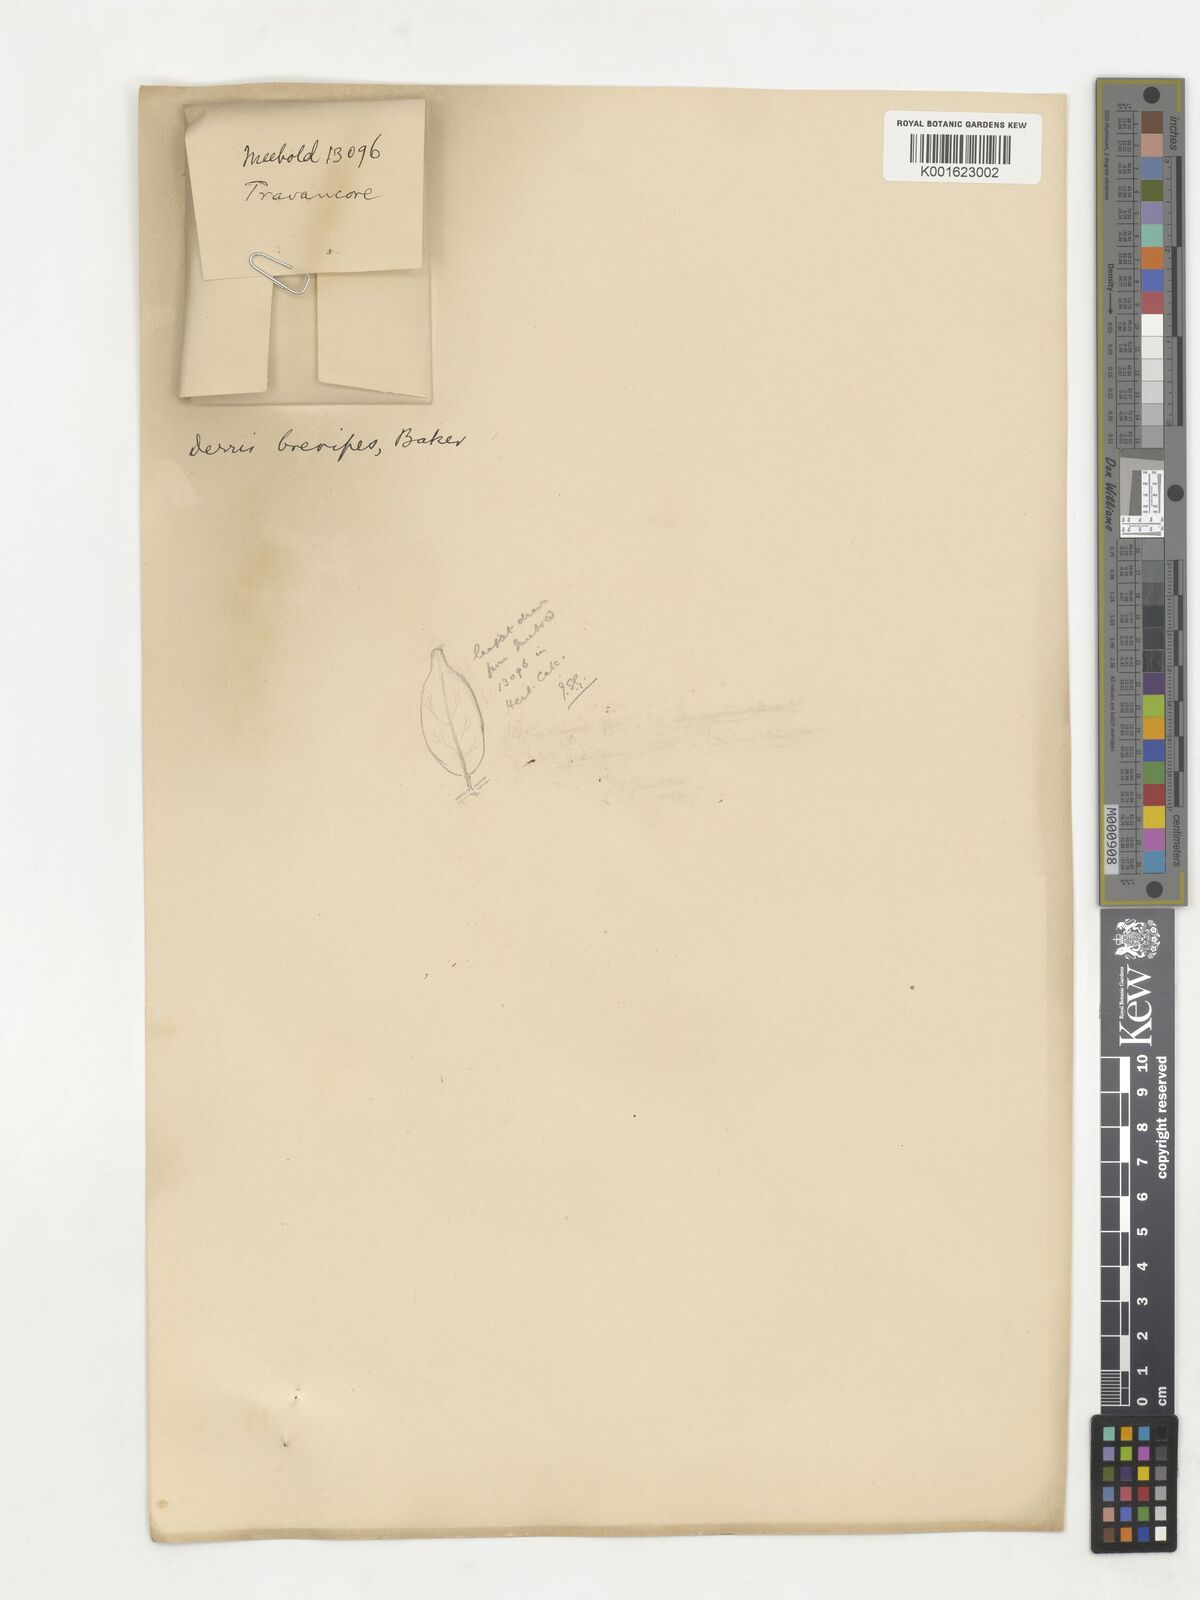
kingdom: Plantae
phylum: Tracheophyta
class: Magnoliopsida
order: Fabales
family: Fabaceae
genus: Derris
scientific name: Derris brevipes
